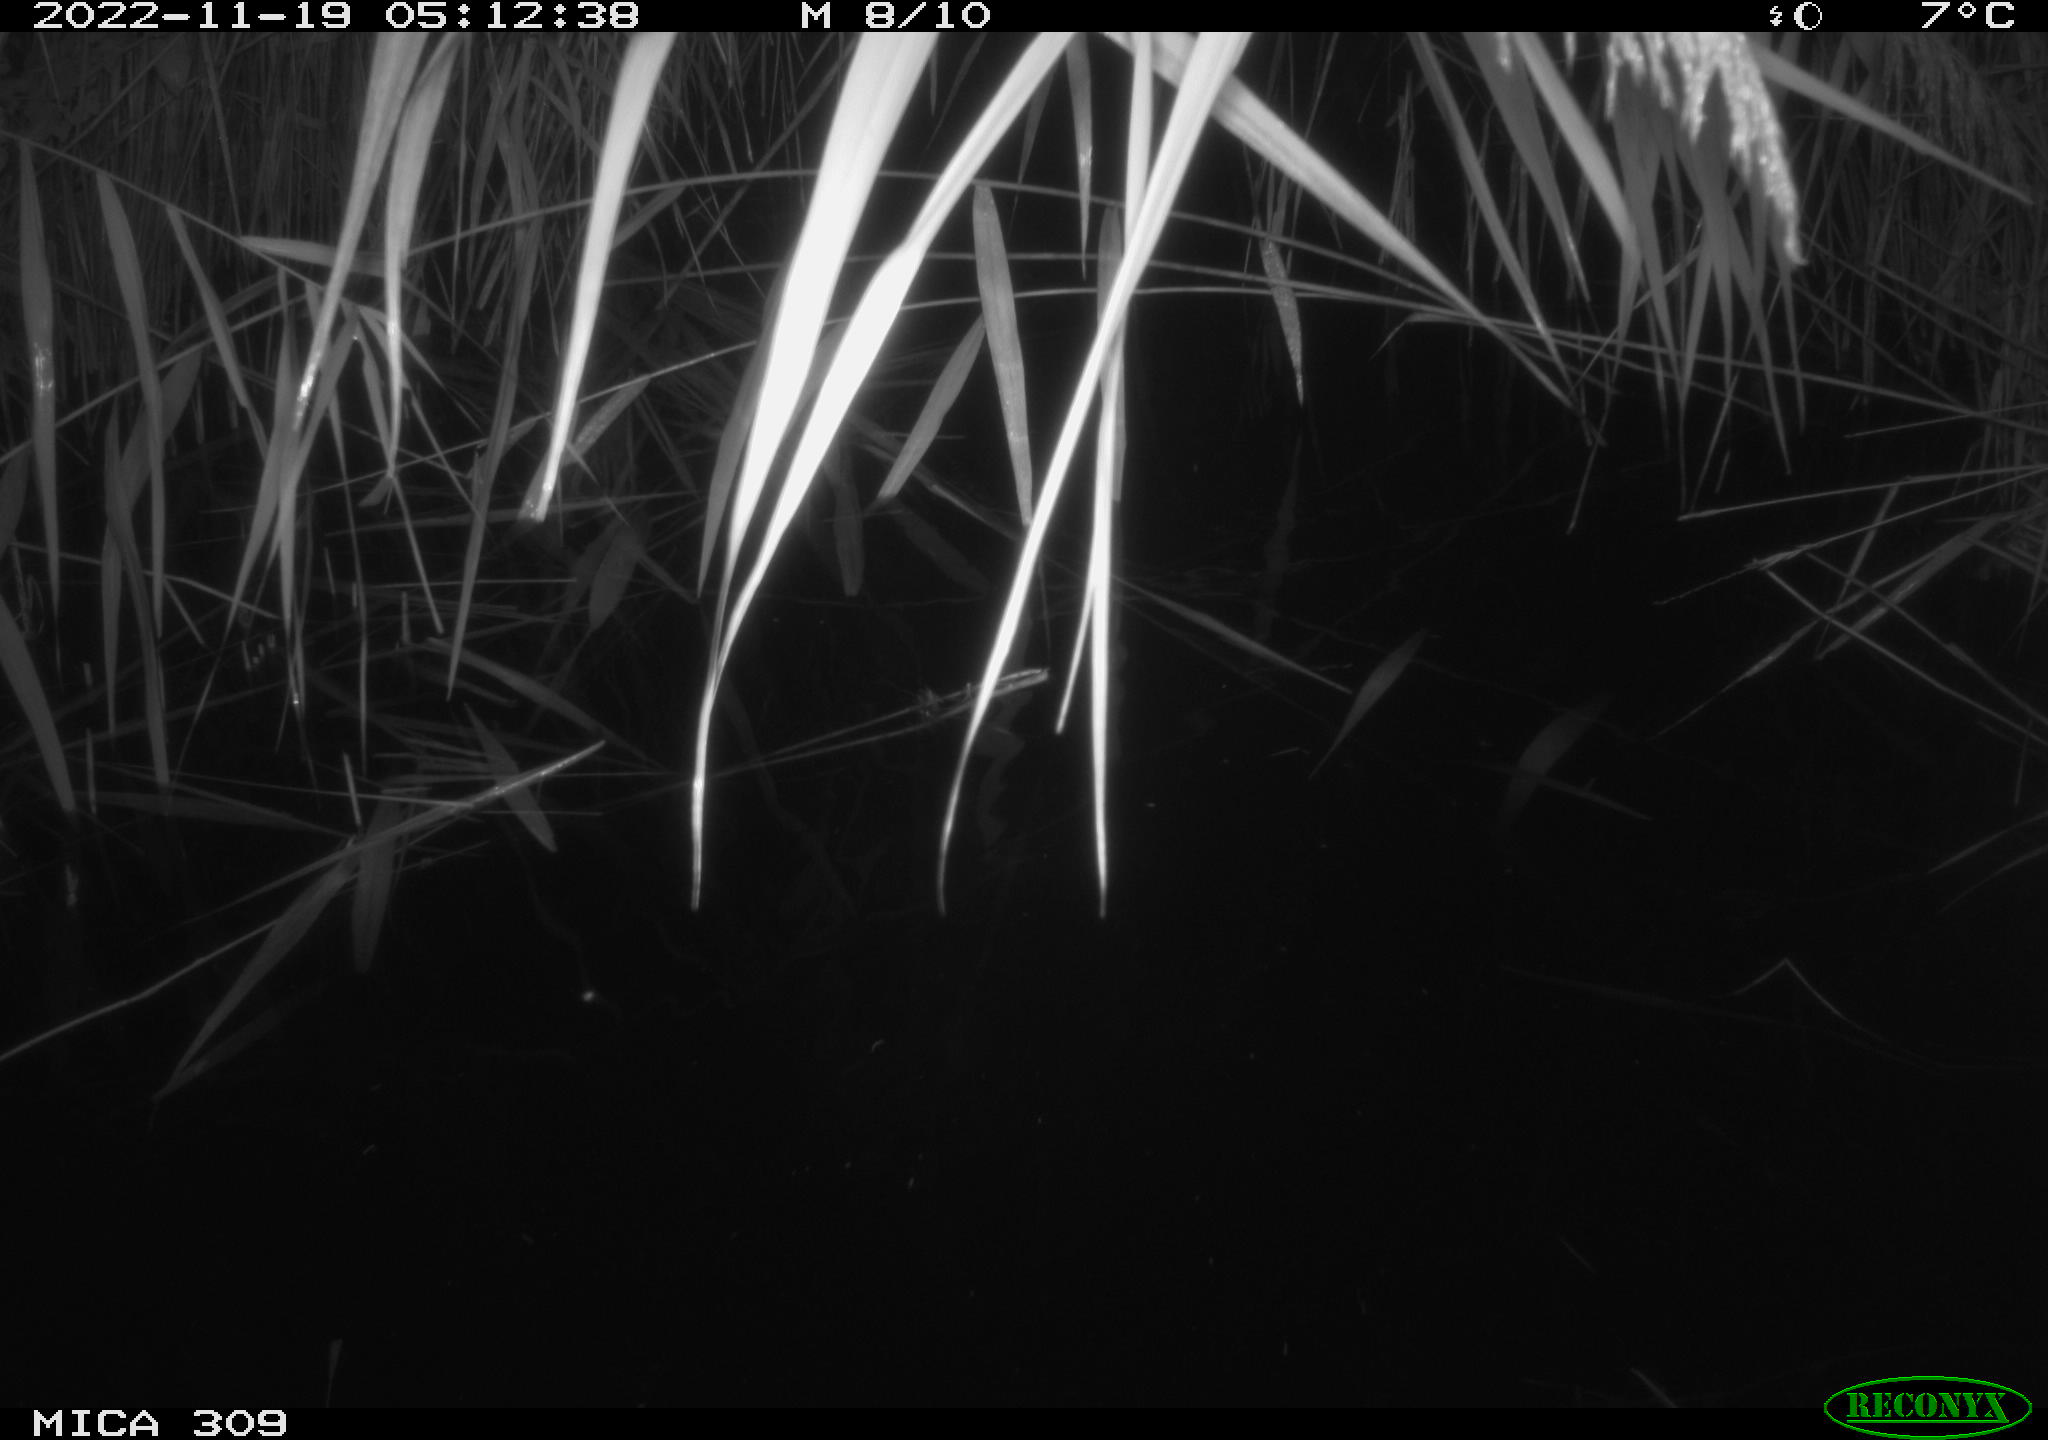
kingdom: Animalia
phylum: Chordata
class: Mammalia
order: Rodentia
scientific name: Rodentia
